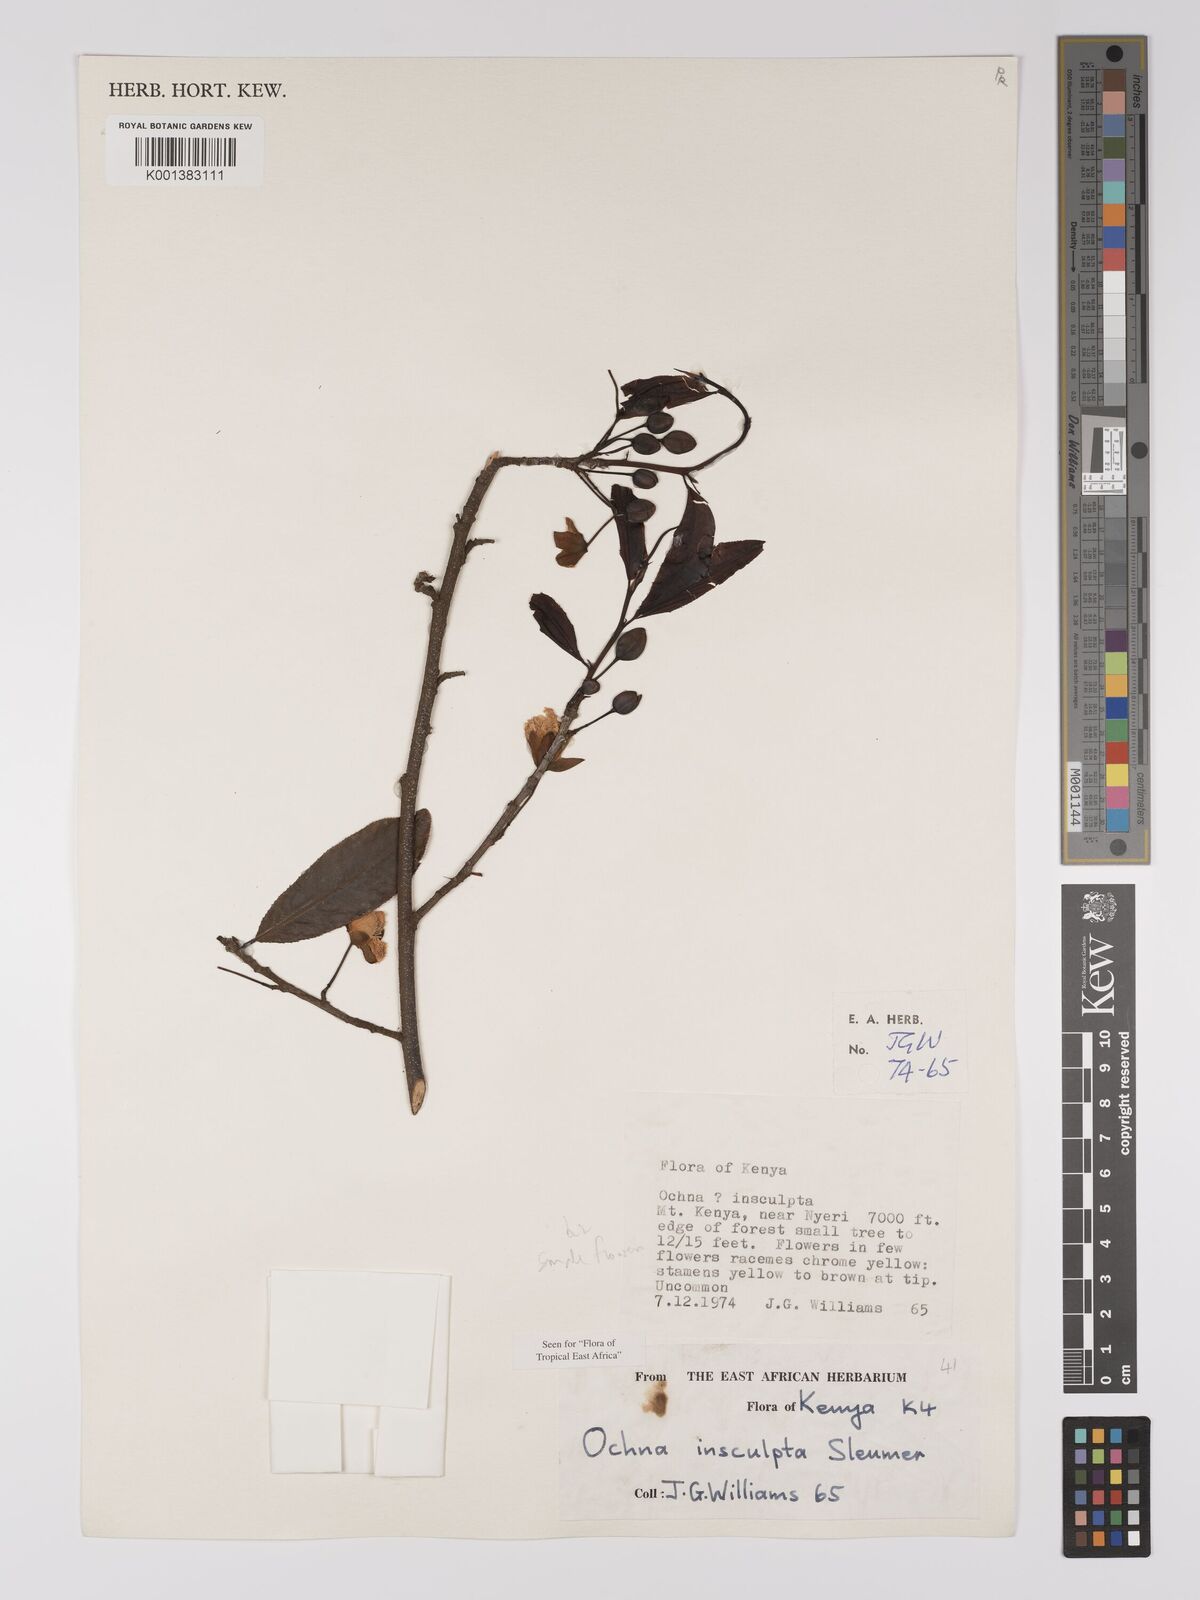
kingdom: Plantae
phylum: Tracheophyta
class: Magnoliopsida
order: Malpighiales
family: Ochnaceae
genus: Ochna
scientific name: Ochna insculpta
